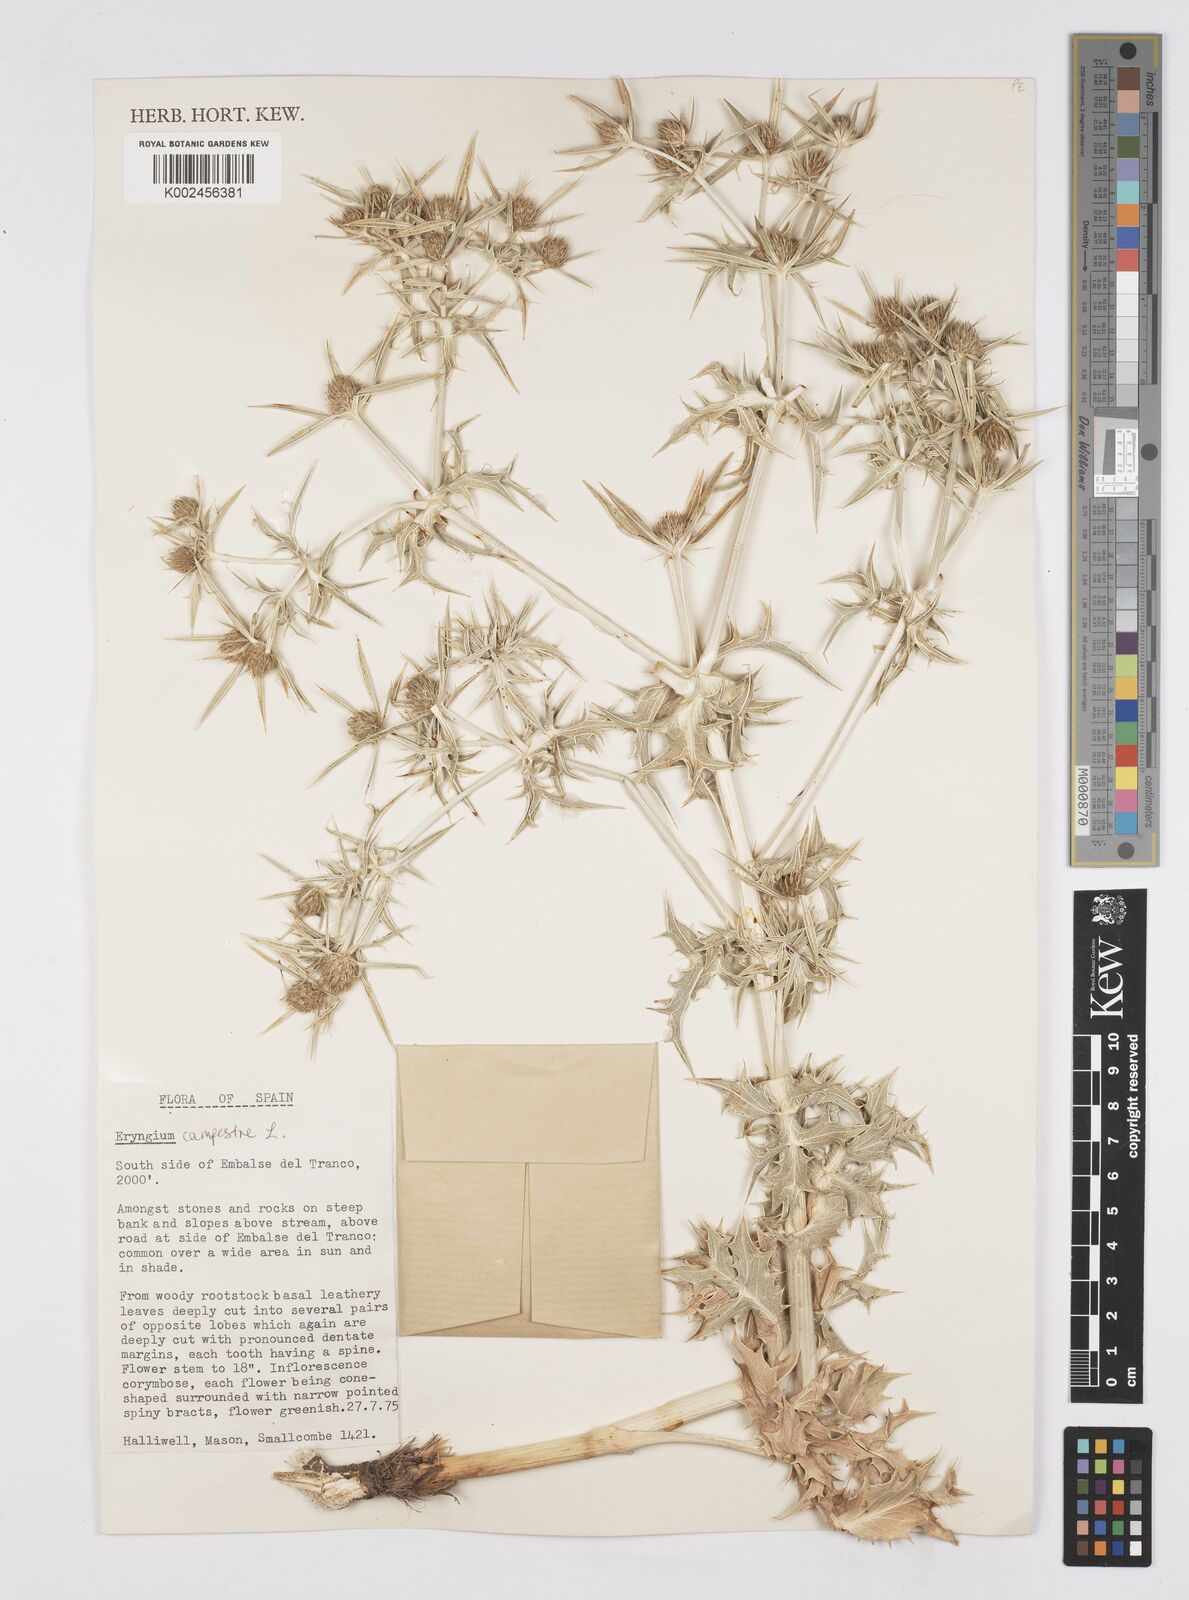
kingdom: Plantae
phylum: Tracheophyta
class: Magnoliopsida
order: Apiales
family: Apiaceae
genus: Eryngium
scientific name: Eryngium campestre
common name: Field eryngo
